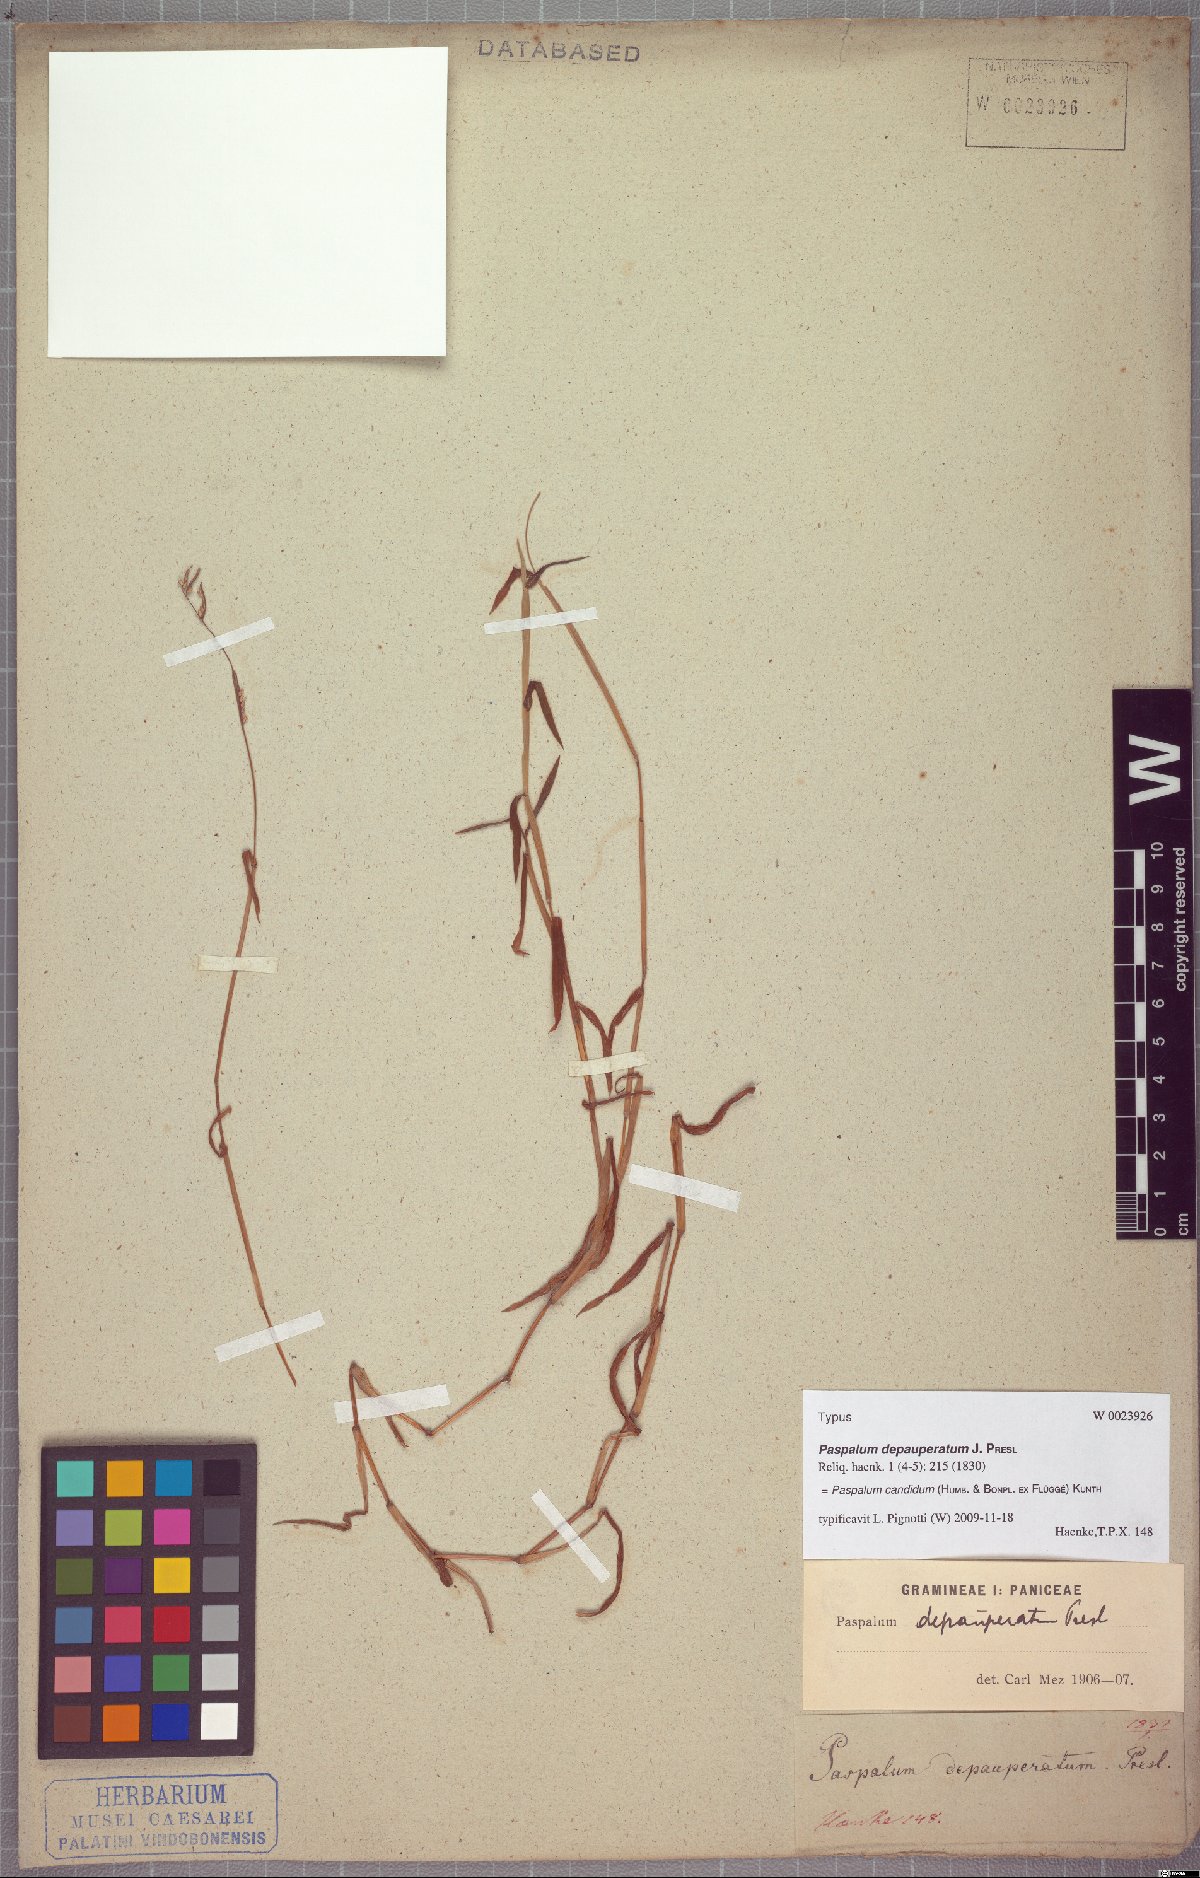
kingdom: Plantae
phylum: Tracheophyta
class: Liliopsida
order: Poales
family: Poaceae
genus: Paspalum
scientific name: Paspalum candidum
